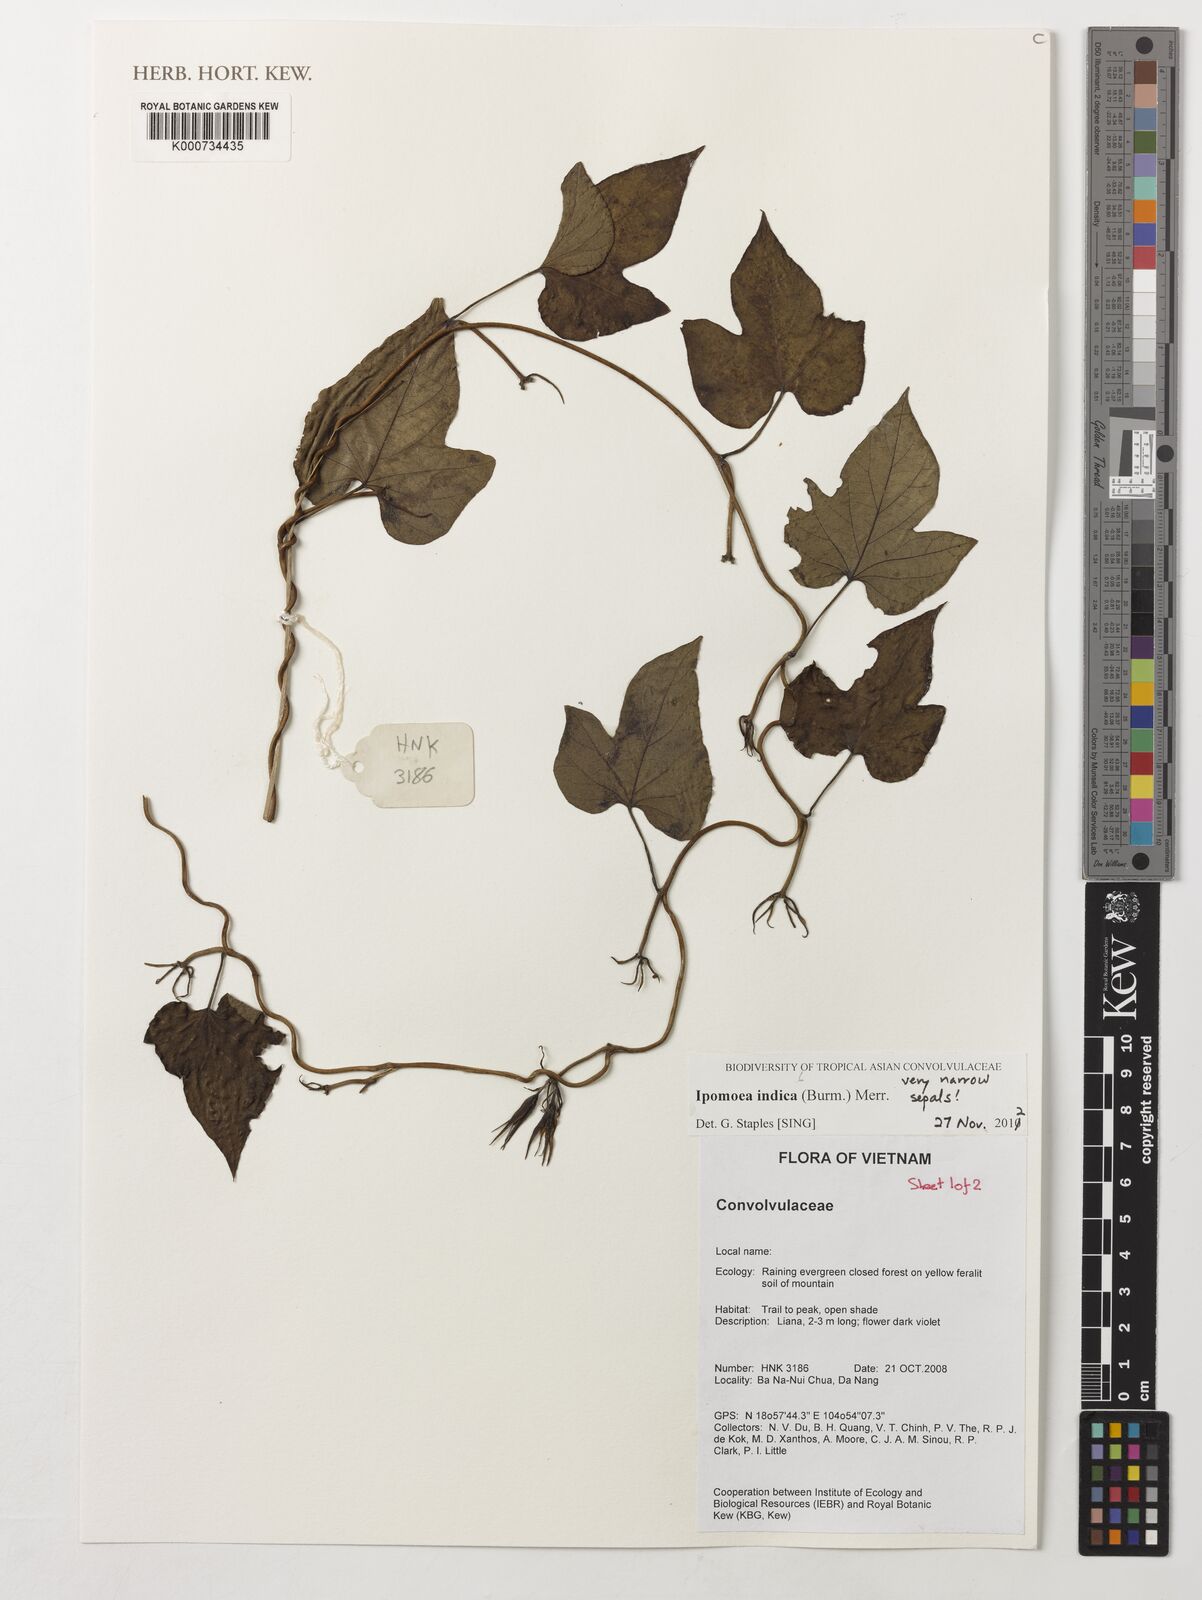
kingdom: Plantae
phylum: Tracheophyta
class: Magnoliopsida
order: Solanales
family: Convolvulaceae
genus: Ipomoea
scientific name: Ipomoea indica
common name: Blue dawnflower
